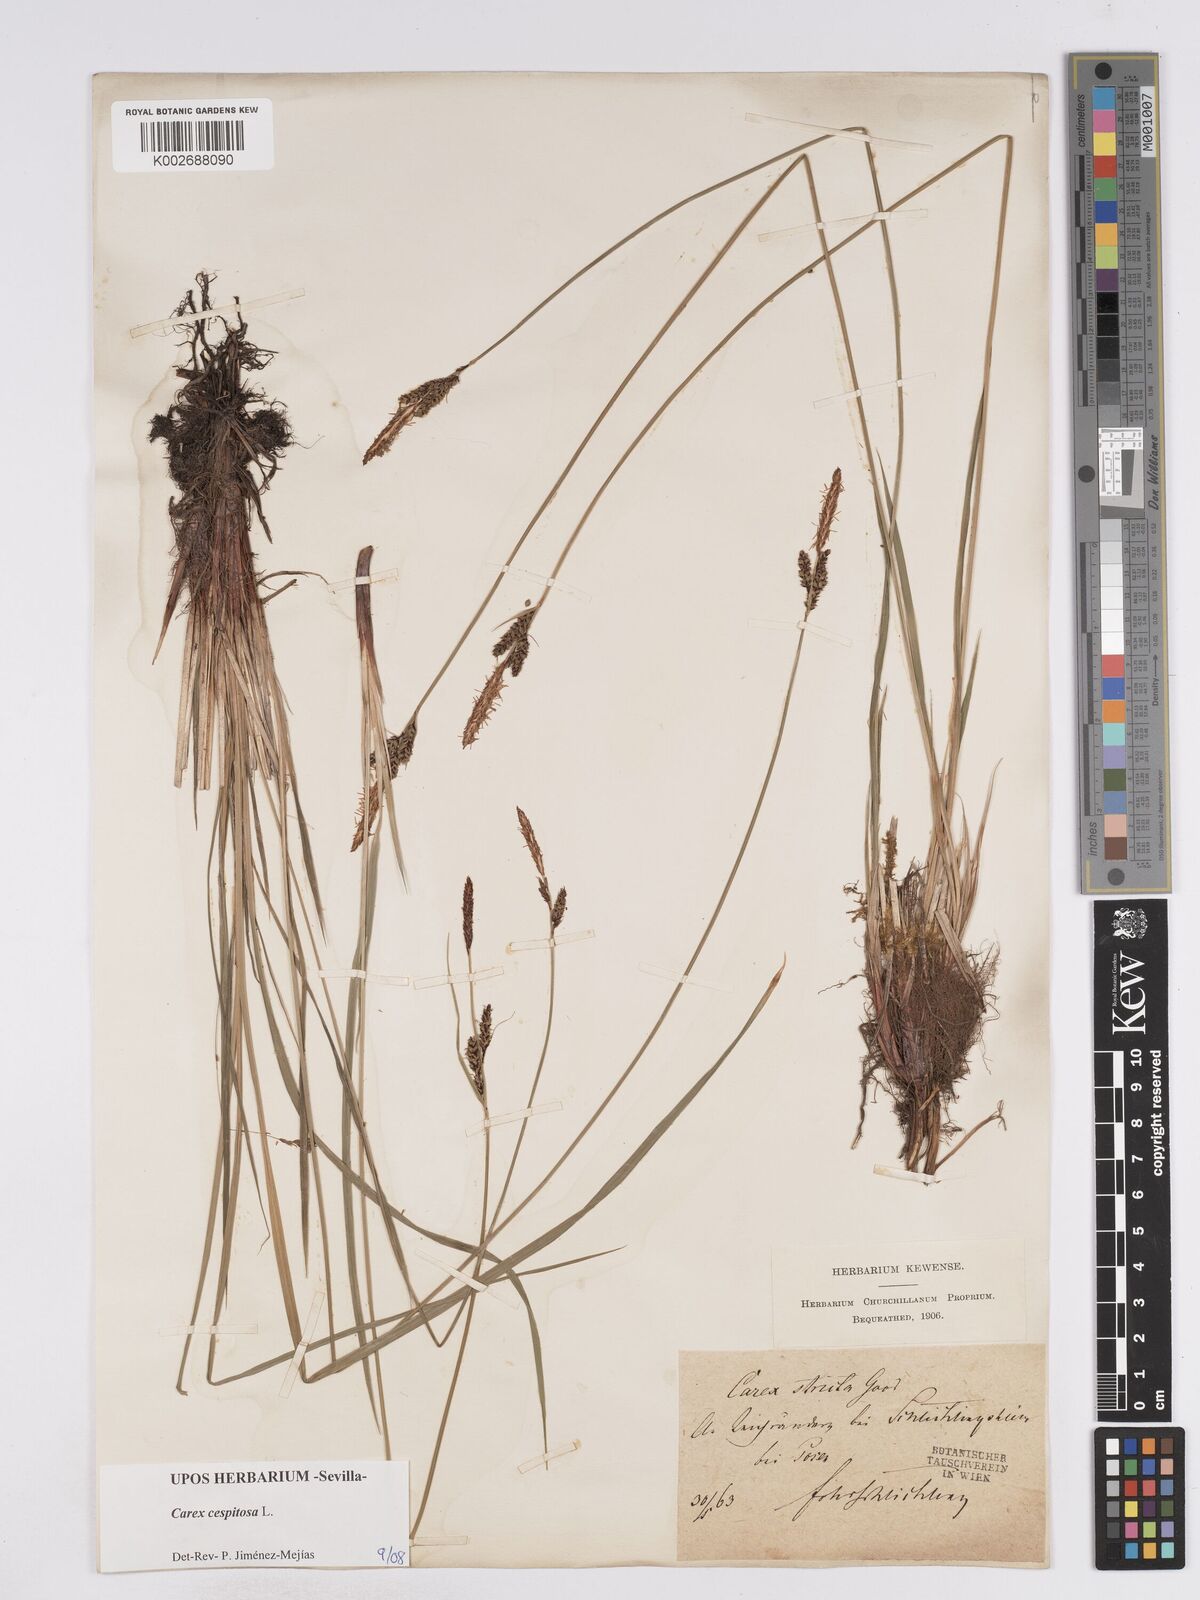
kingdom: Plantae
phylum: Tracheophyta
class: Liliopsida
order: Poales
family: Cyperaceae
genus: Carex
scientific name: Carex
